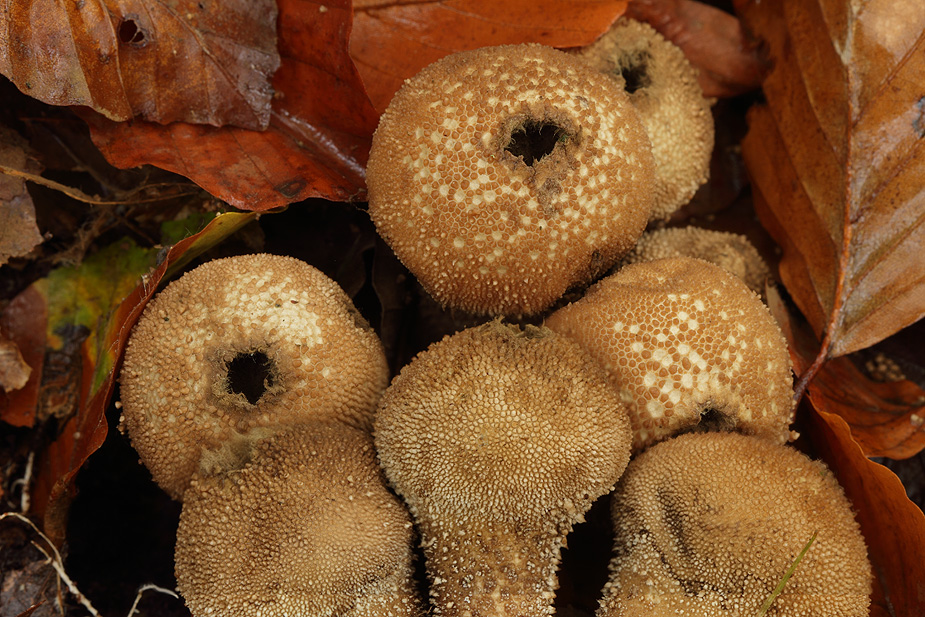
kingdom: Fungi
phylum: Basidiomycota
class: Agaricomycetes
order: Agaricales
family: Lycoperdaceae
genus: Lycoperdon
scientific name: Lycoperdon perlatum
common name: krystal-støvbold
